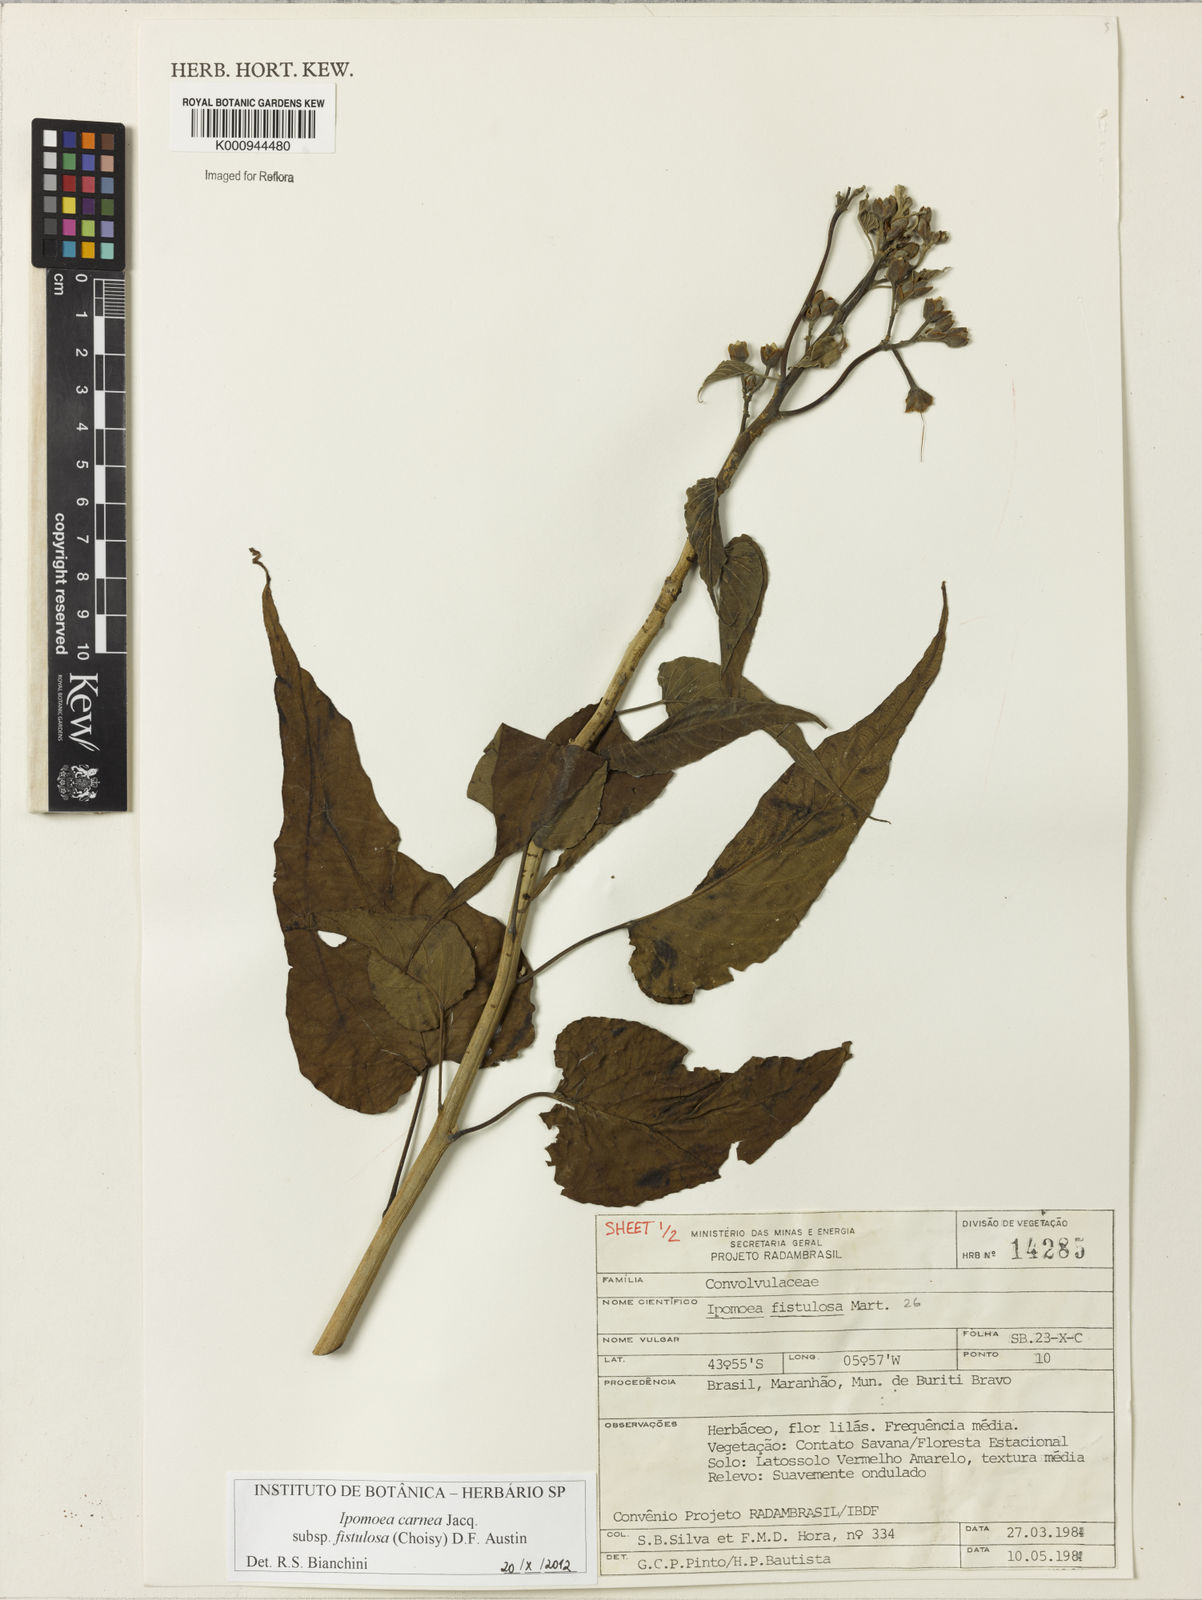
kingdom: Plantae
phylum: Tracheophyta
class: Magnoliopsida
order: Solanales
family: Convolvulaceae
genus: Ipomoea
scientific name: Ipomoea
